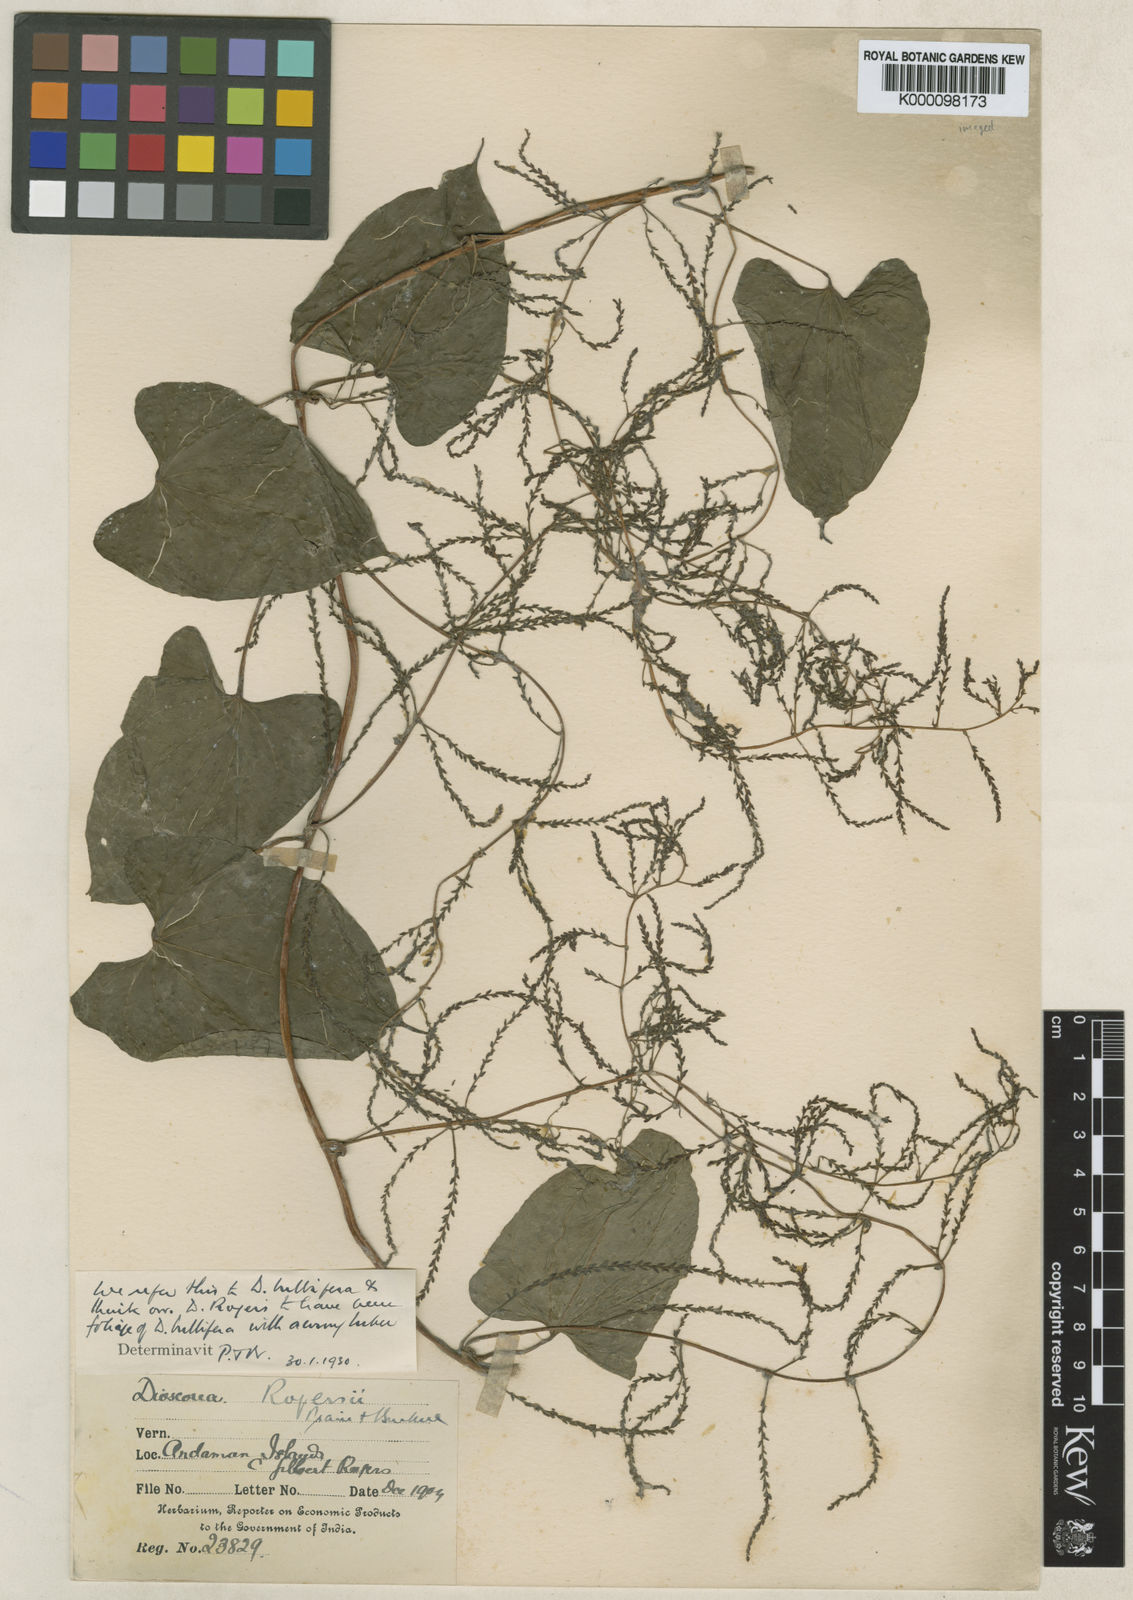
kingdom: Plantae
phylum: Tracheophyta
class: Liliopsida
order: Dioscoreales
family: Dioscoreaceae
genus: Dioscorea
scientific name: Dioscorea bulbifera
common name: Air yam
